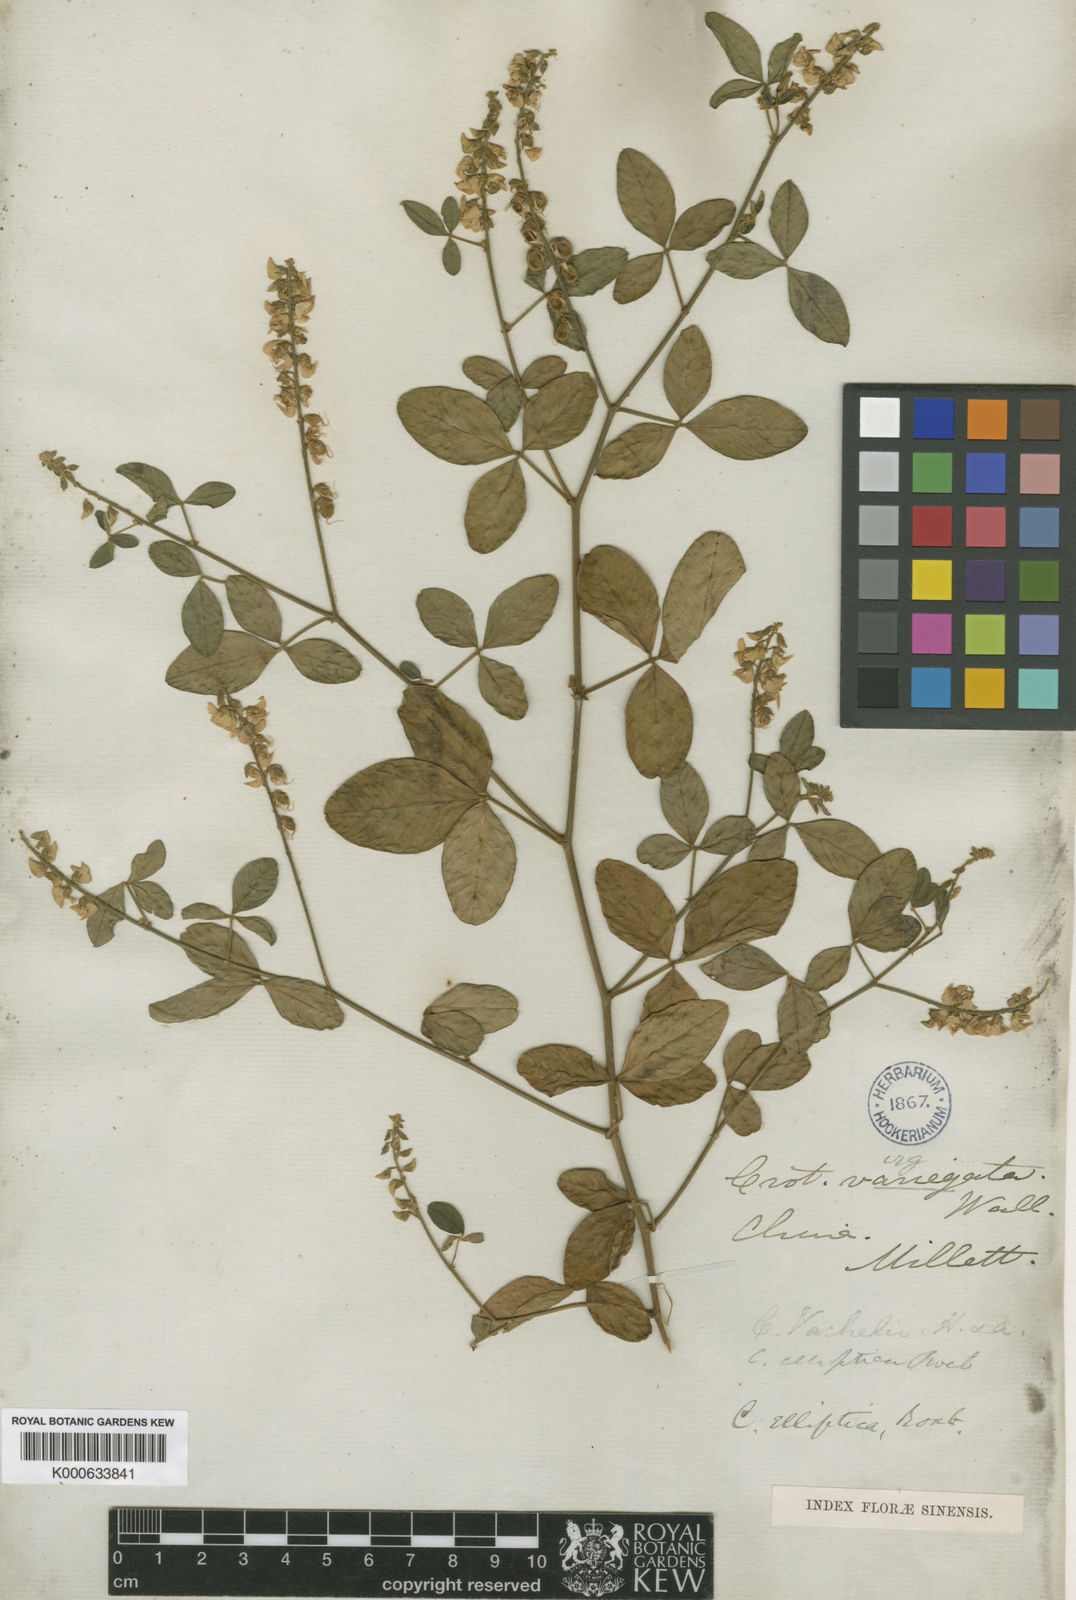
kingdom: Plantae
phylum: Tracheophyta
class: Magnoliopsida
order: Fabales
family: Fabaceae
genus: Crotalaria
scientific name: Crotalaria uncinella
